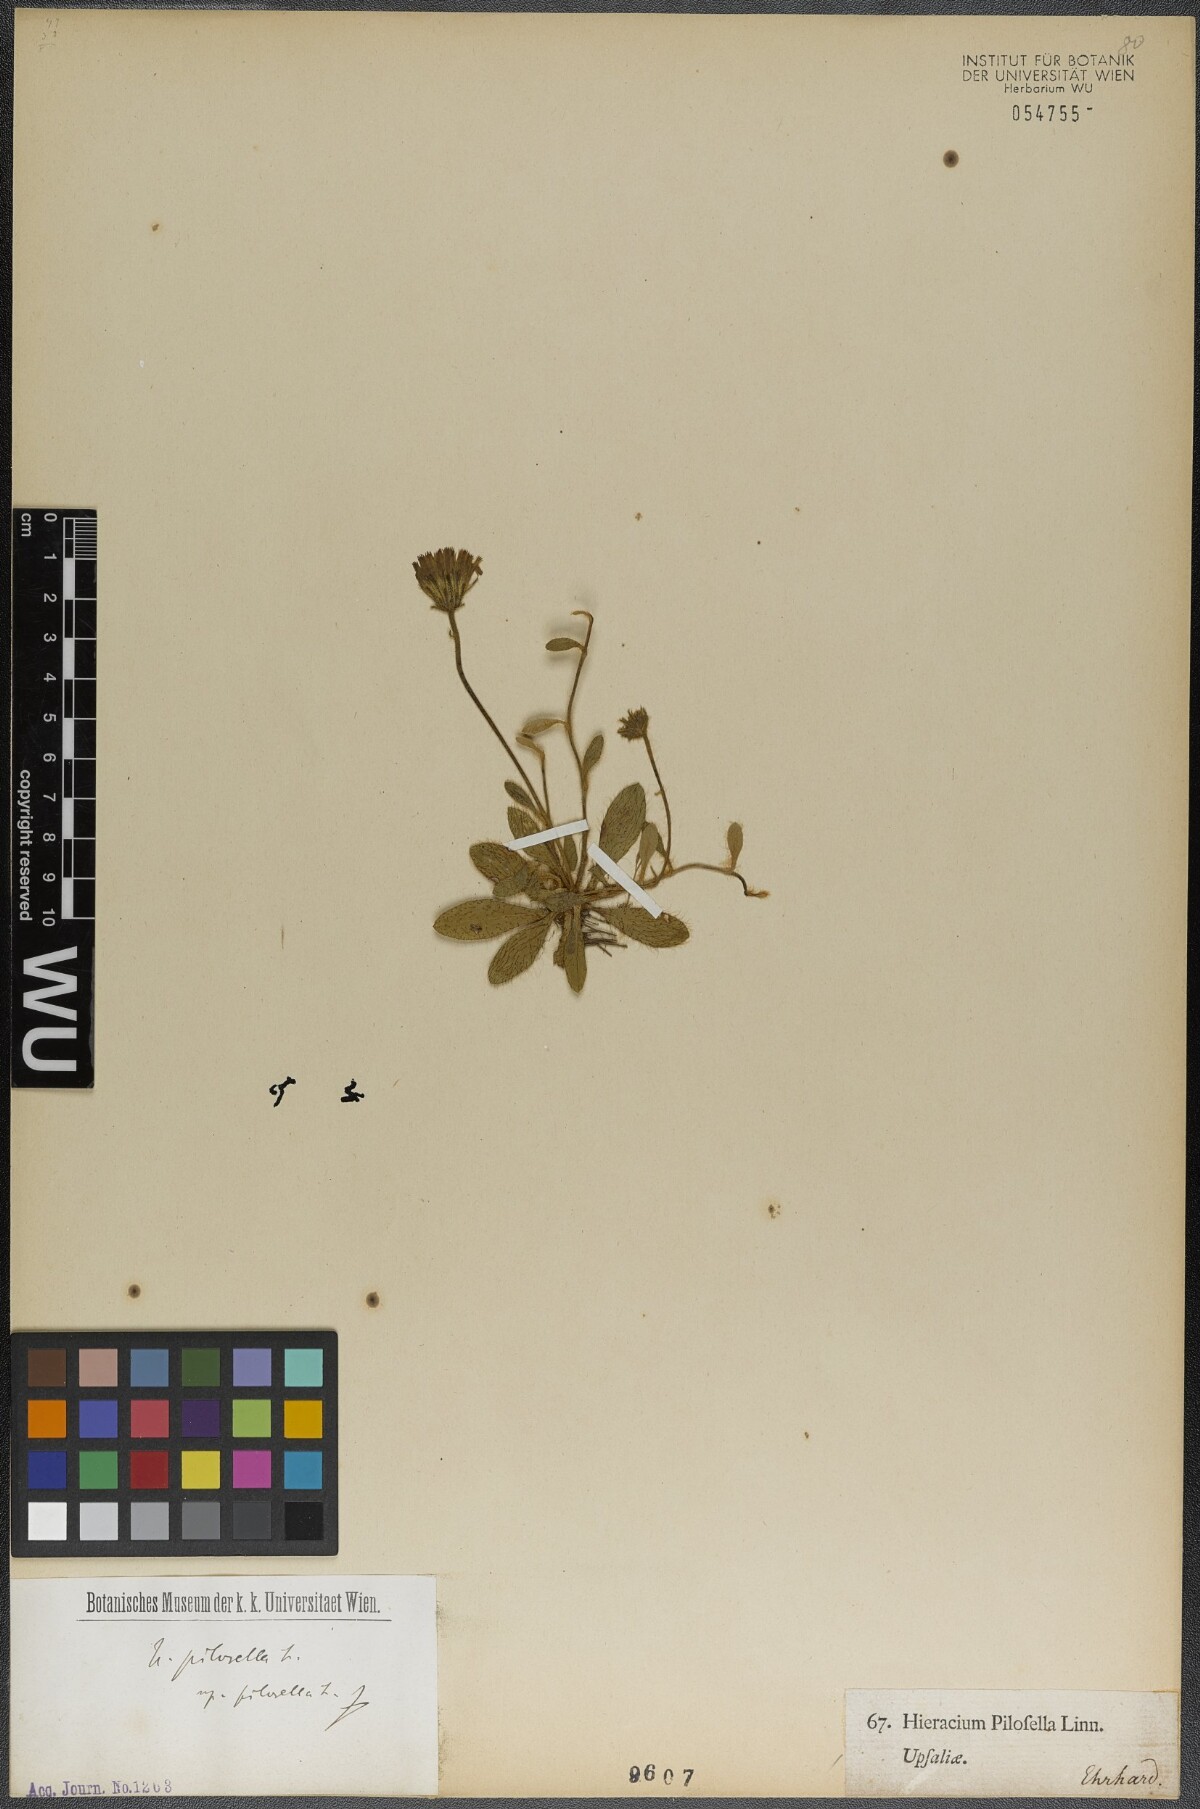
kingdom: Plantae
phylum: Tracheophyta
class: Magnoliopsida
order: Asterales
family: Asteraceae
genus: Pilosella
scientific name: Pilosella officinarum
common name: Mouse-ear hawkweed
